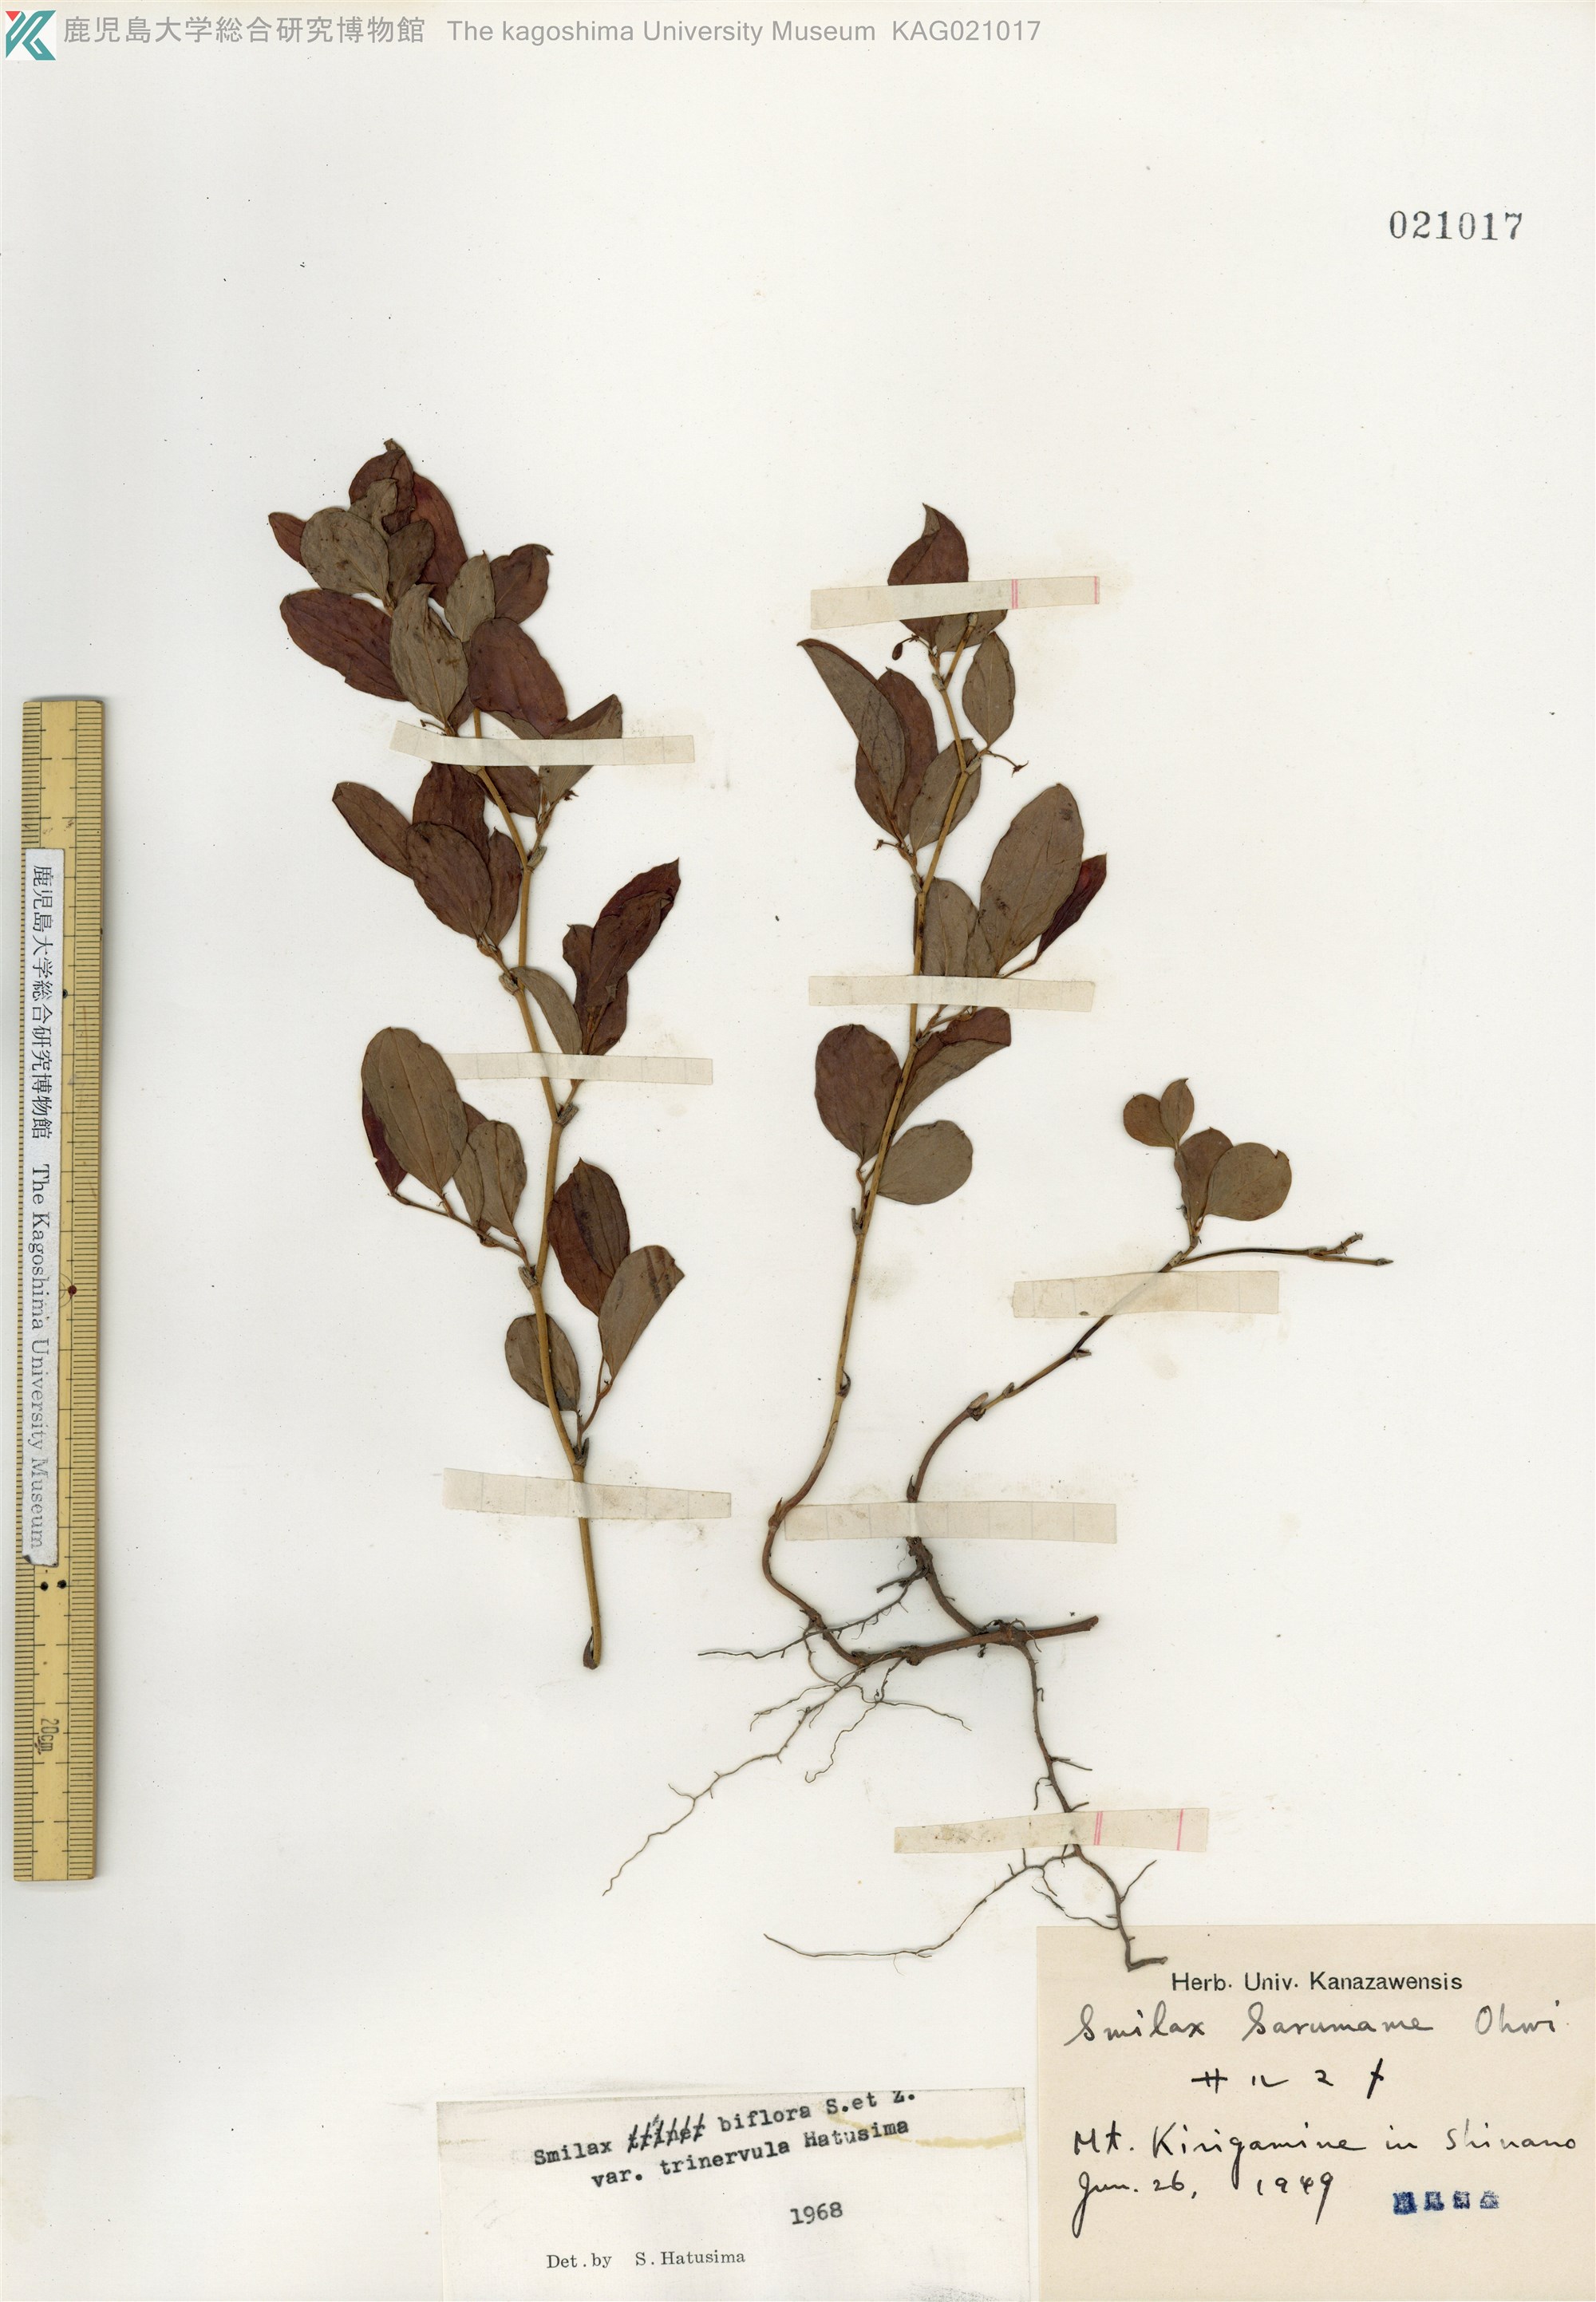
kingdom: Plantae
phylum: Tracheophyta
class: Liliopsida
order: Liliales
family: Smilacaceae
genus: Smilax
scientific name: Smilax trinervula
